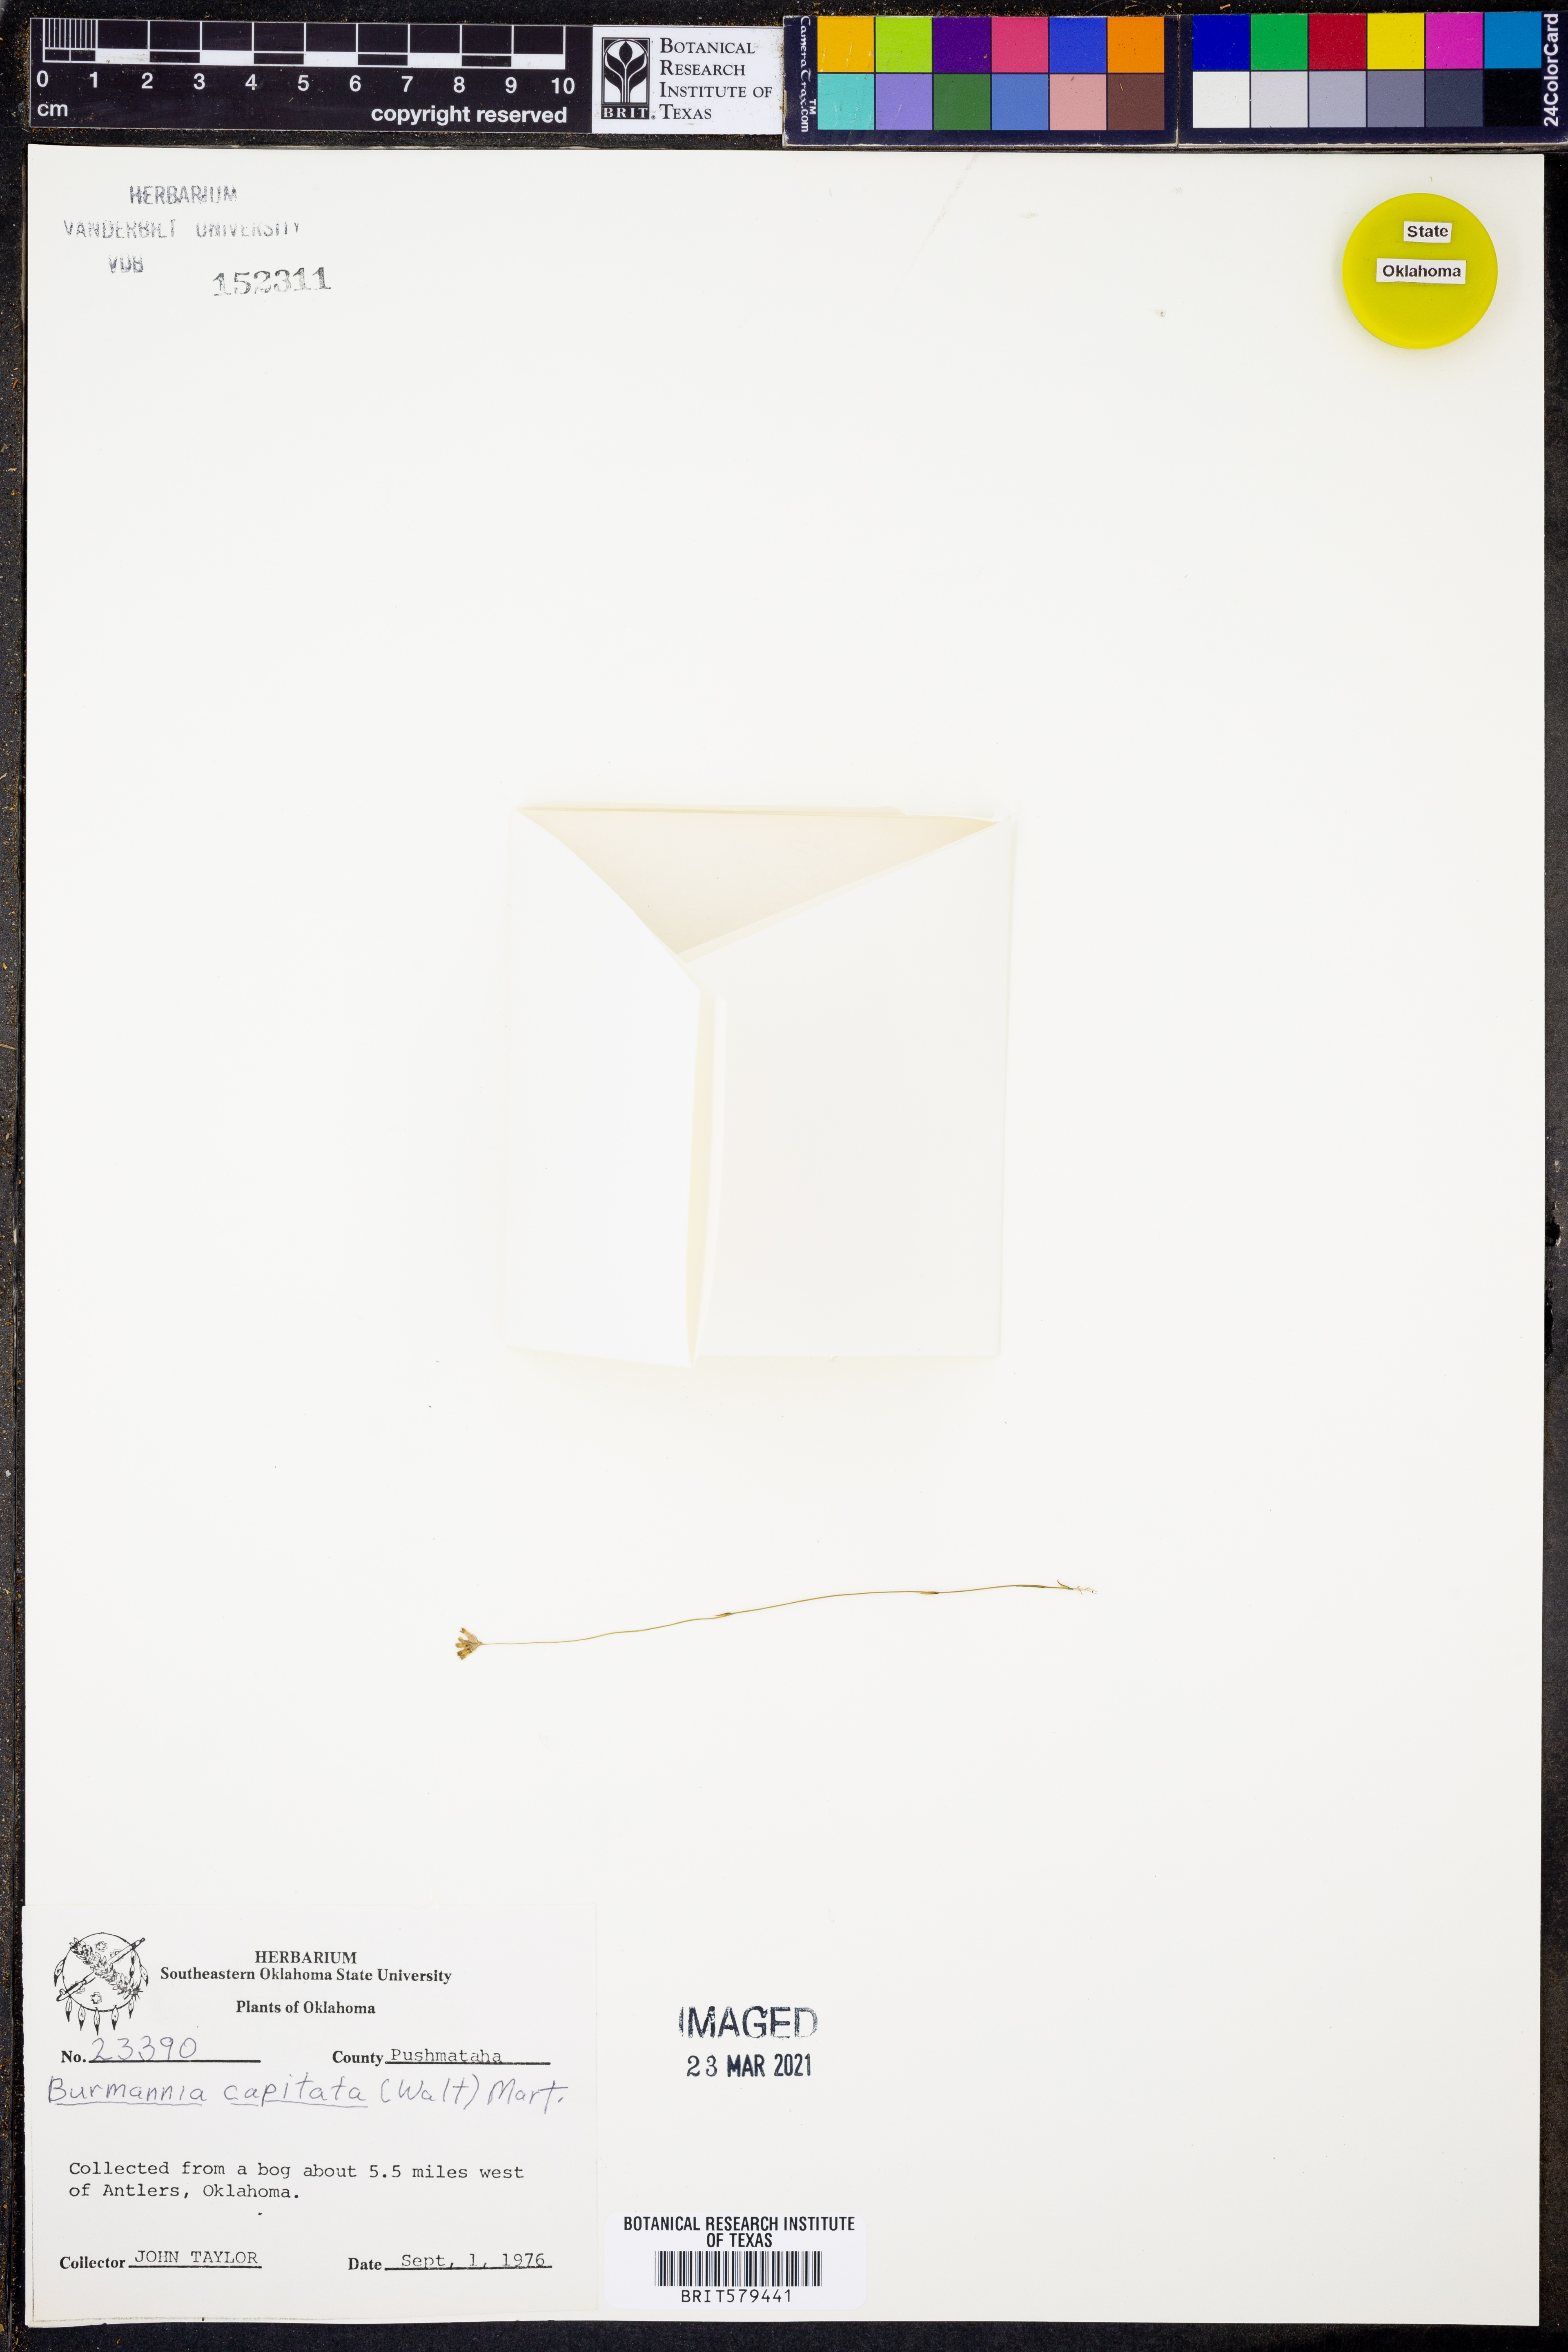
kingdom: Plantae
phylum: Tracheophyta
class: Liliopsida
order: Dioscoreales
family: Burmanniaceae
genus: Burmannia
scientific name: Burmannia capitata
